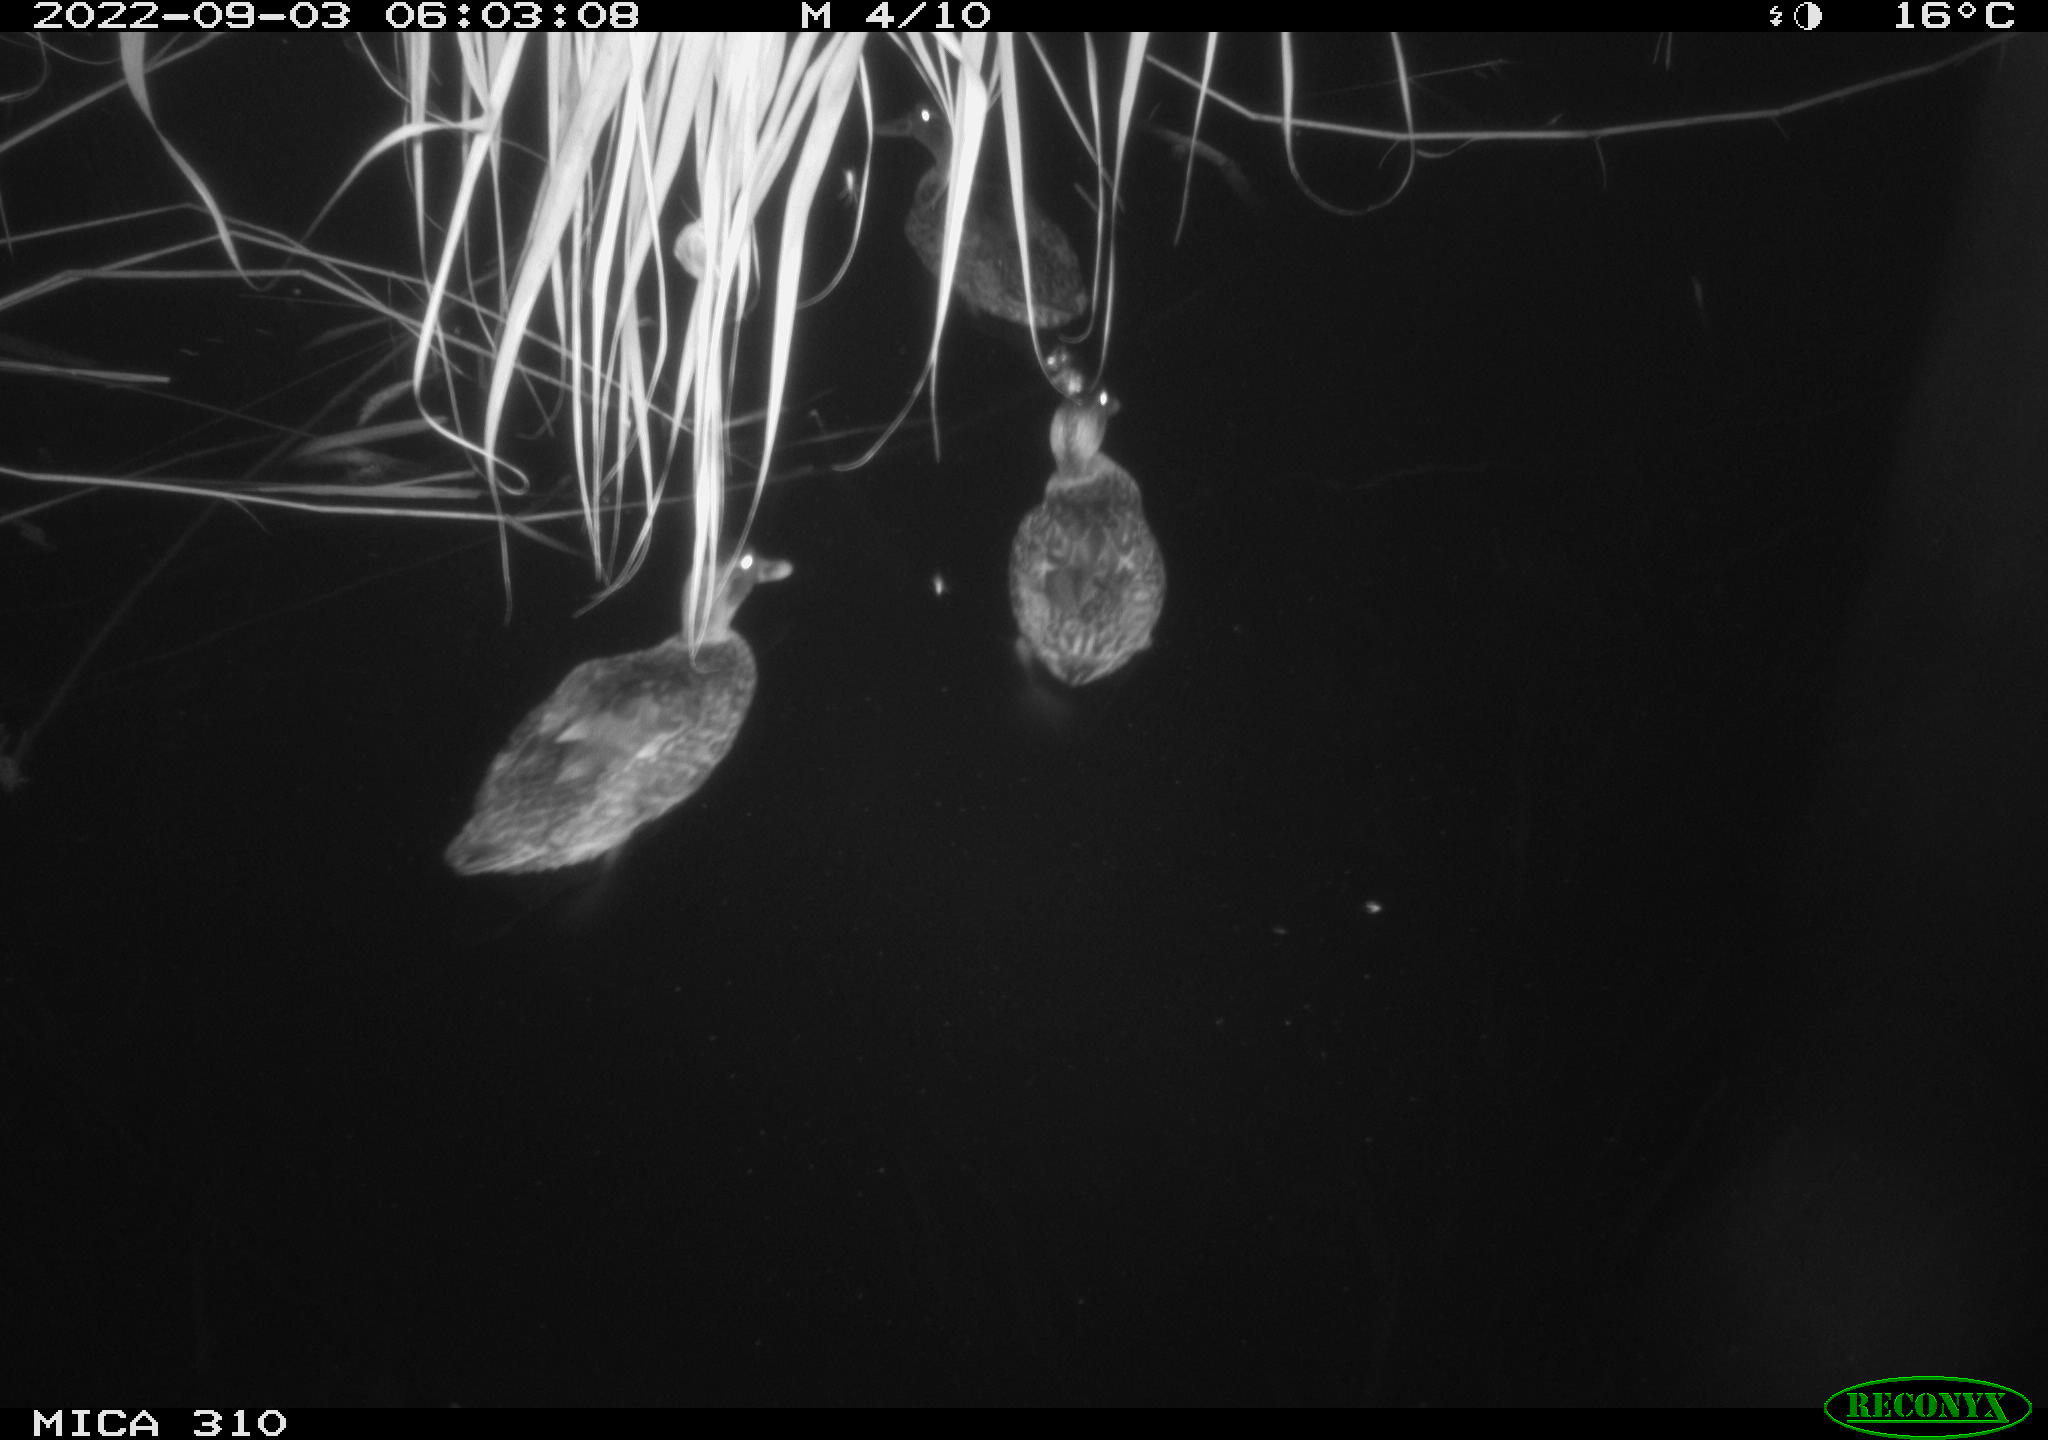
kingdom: Animalia
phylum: Chordata
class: Aves
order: Anseriformes
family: Anatidae
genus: Anas
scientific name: Anas platyrhynchos
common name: Mallard
